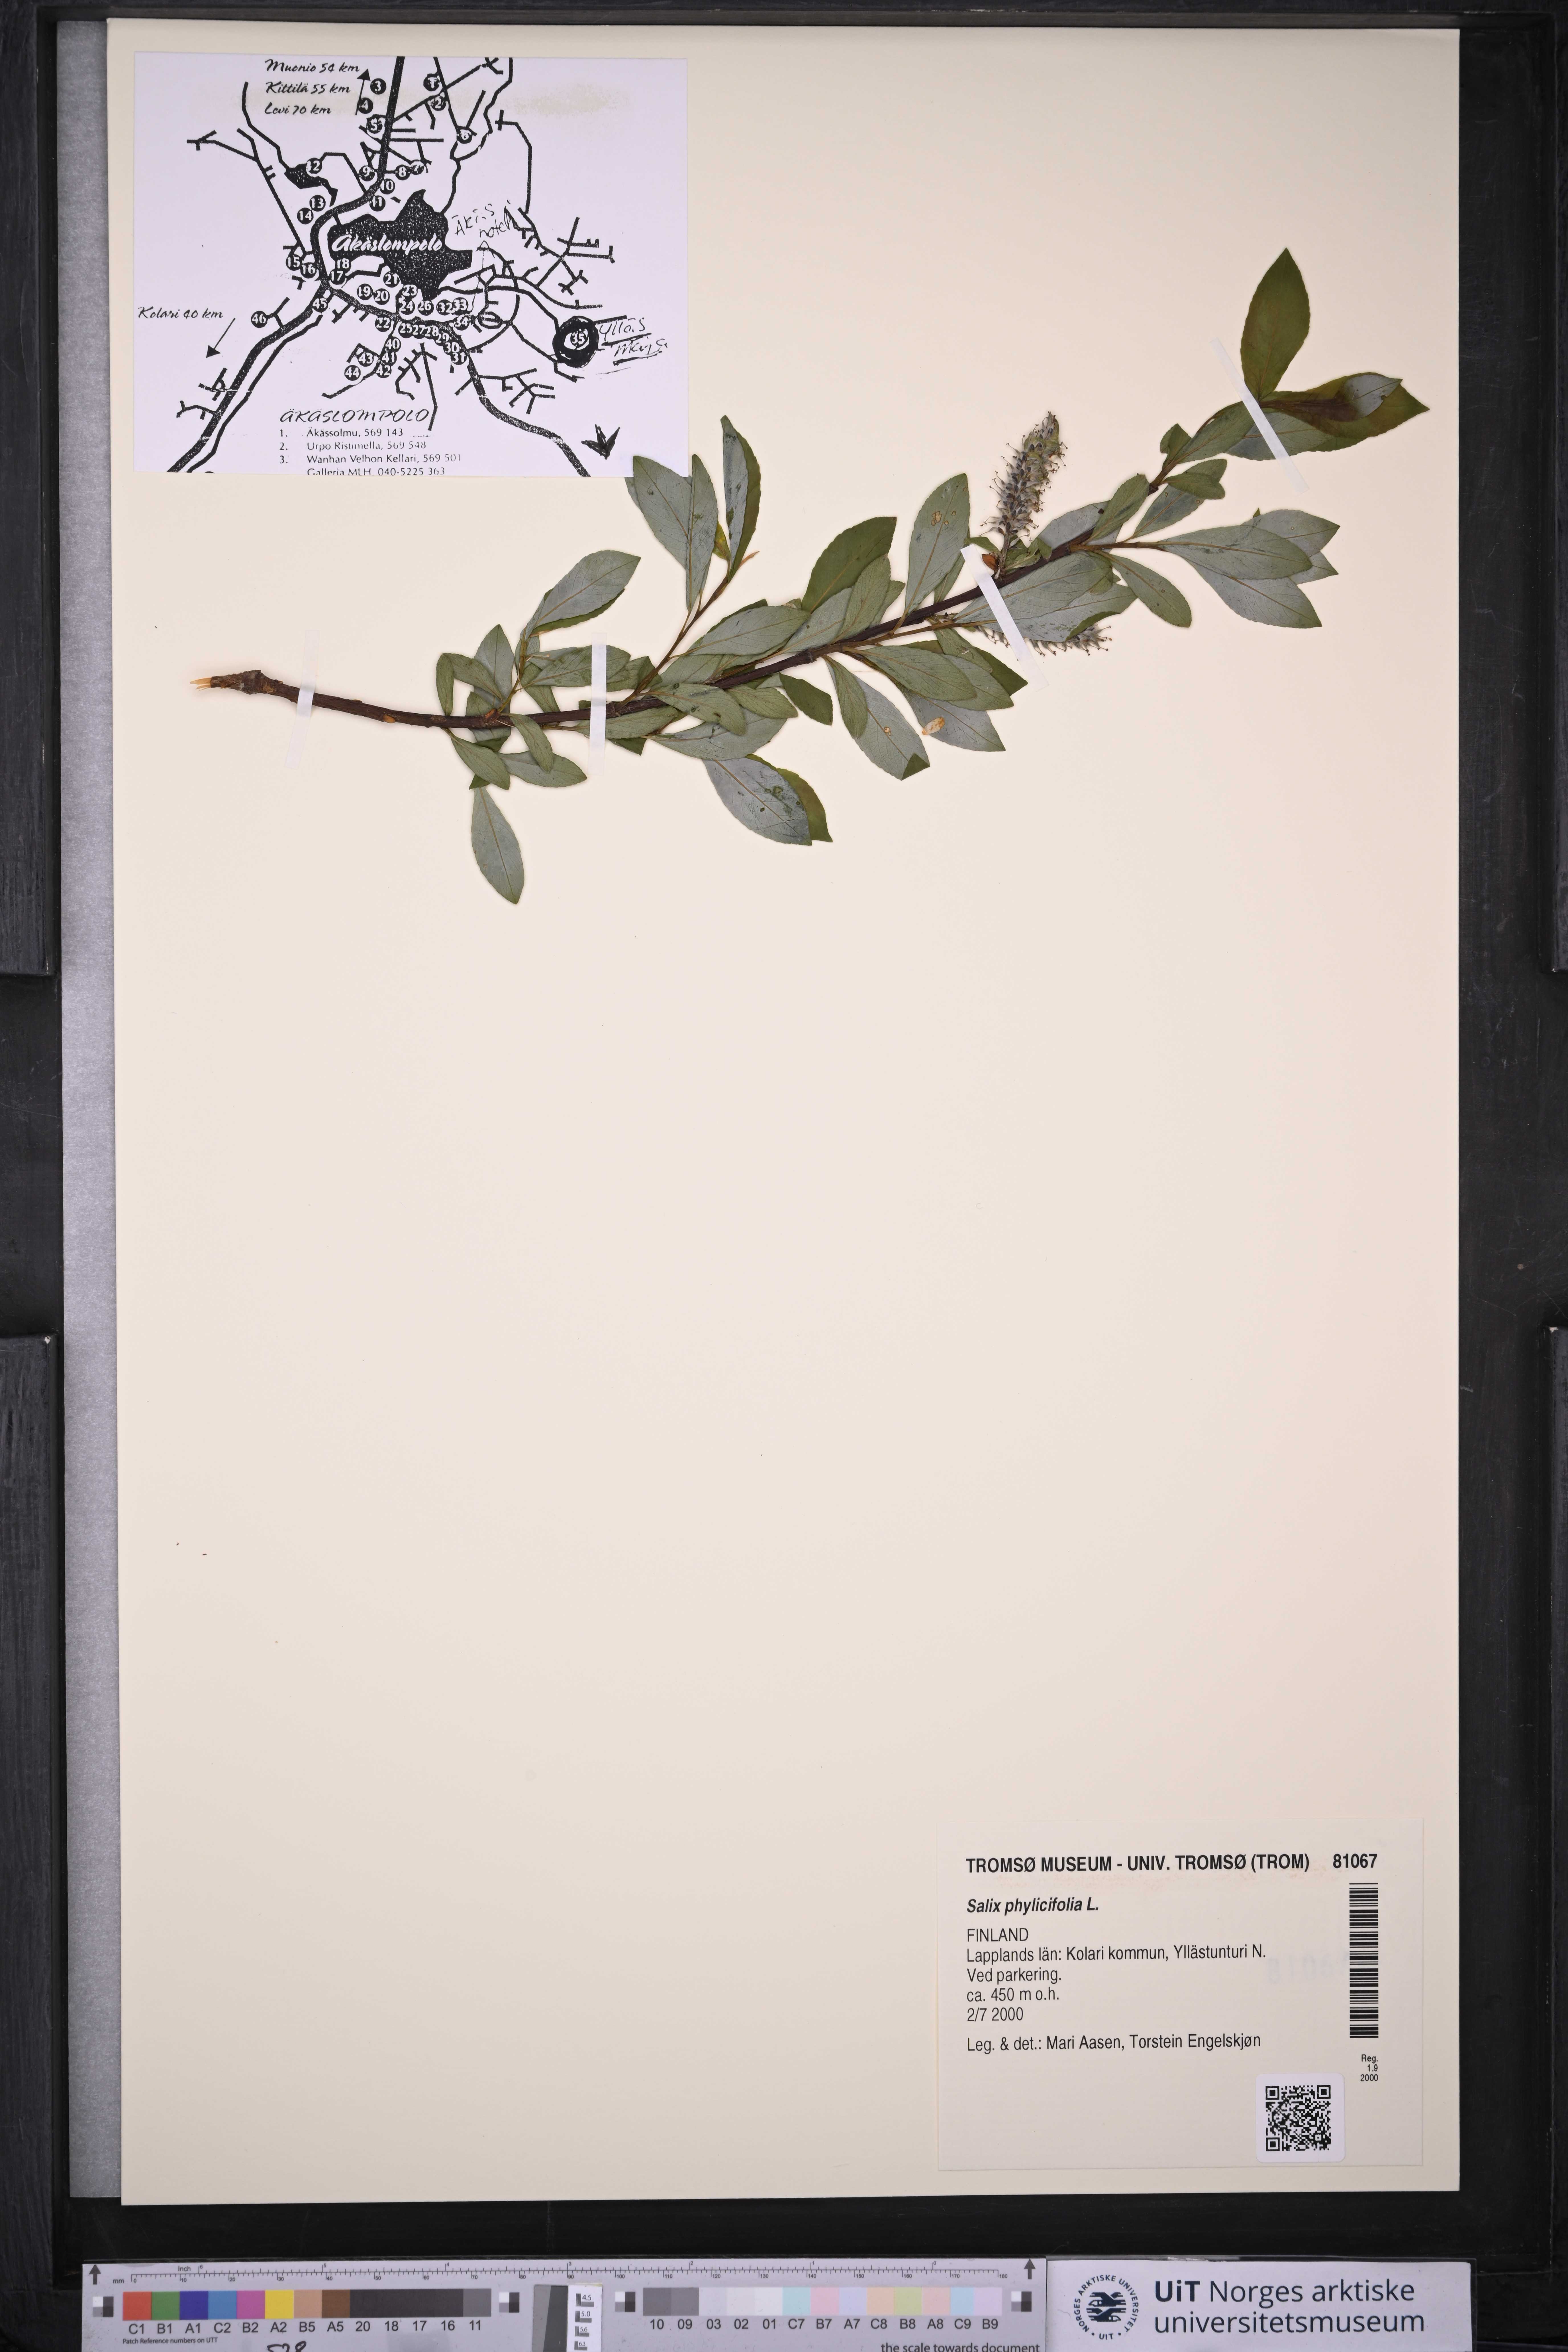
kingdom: Plantae
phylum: Tracheophyta
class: Magnoliopsida
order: Malpighiales
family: Salicaceae
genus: Salix
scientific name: Salix phylicifolia
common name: Tea-leaved willow
